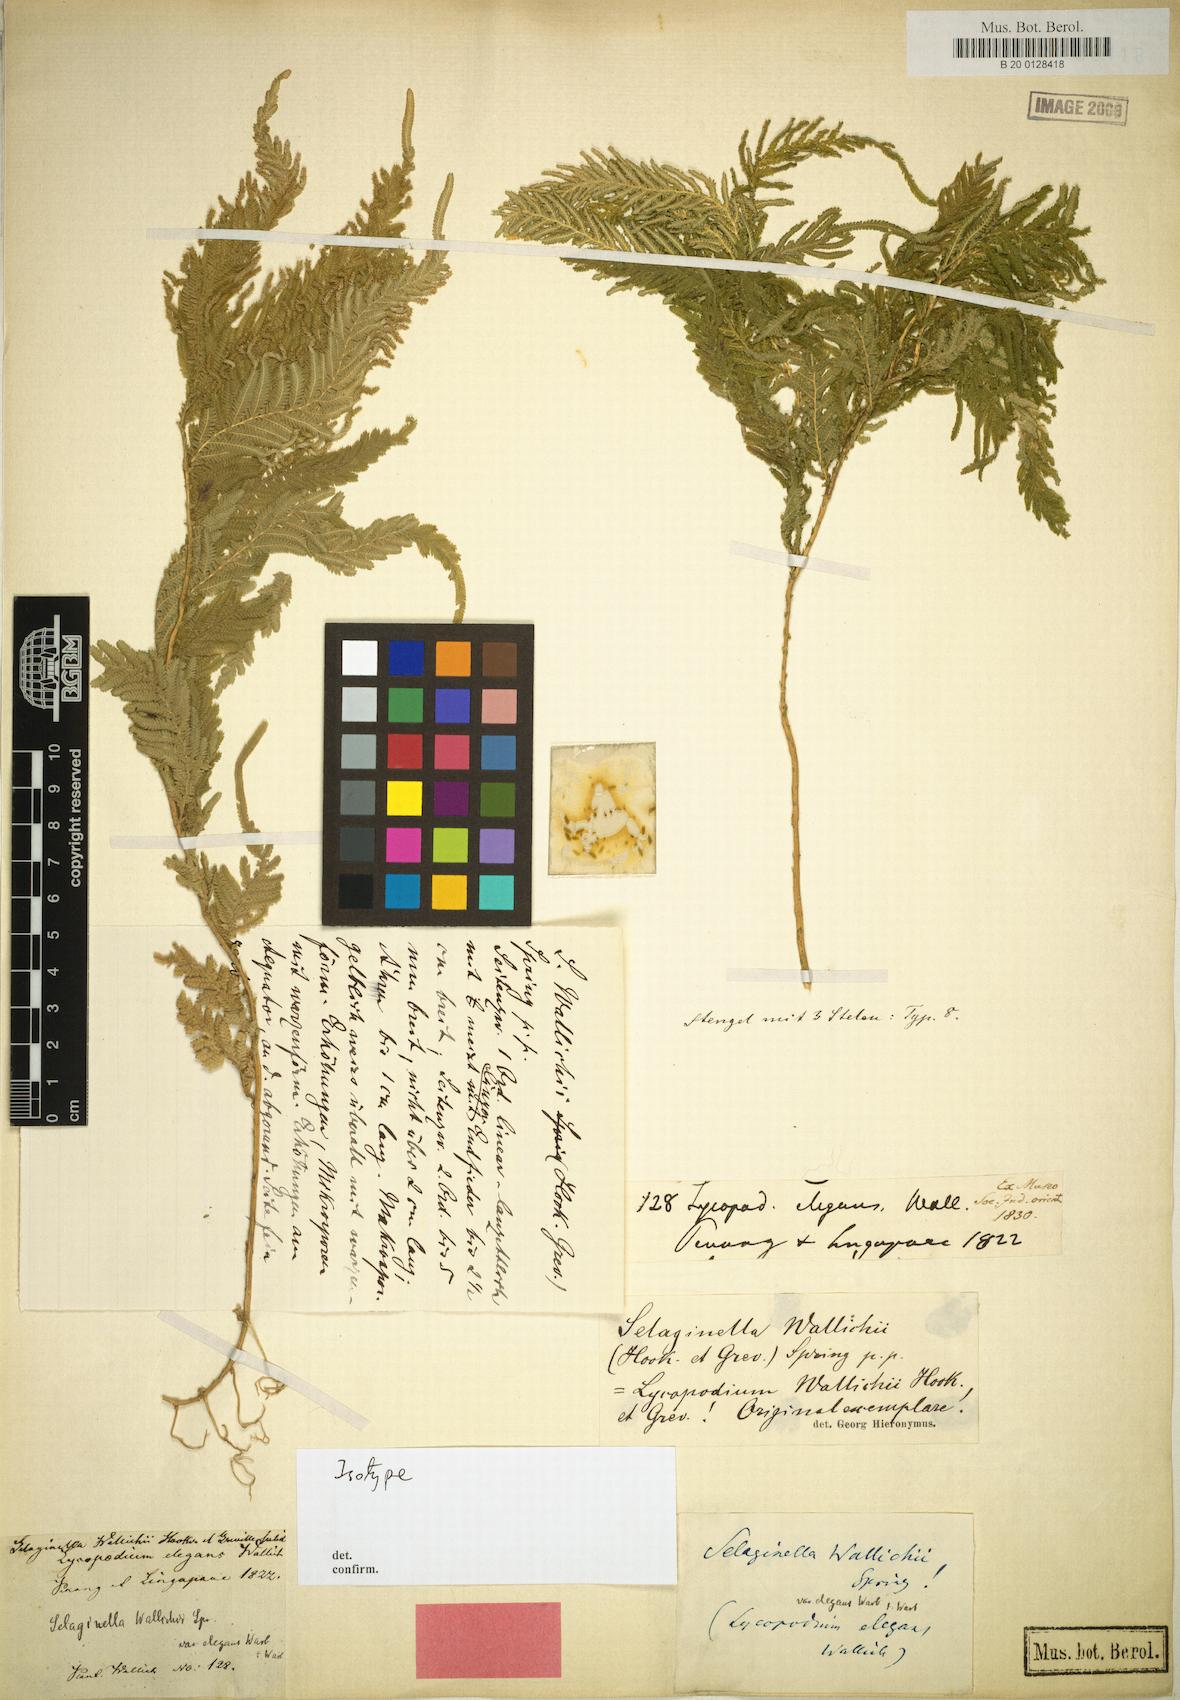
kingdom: Plantae
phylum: Tracheophyta
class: Lycopodiopsida
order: Selaginellales
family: Selaginellaceae
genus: Selaginella
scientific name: Selaginella wallichii
